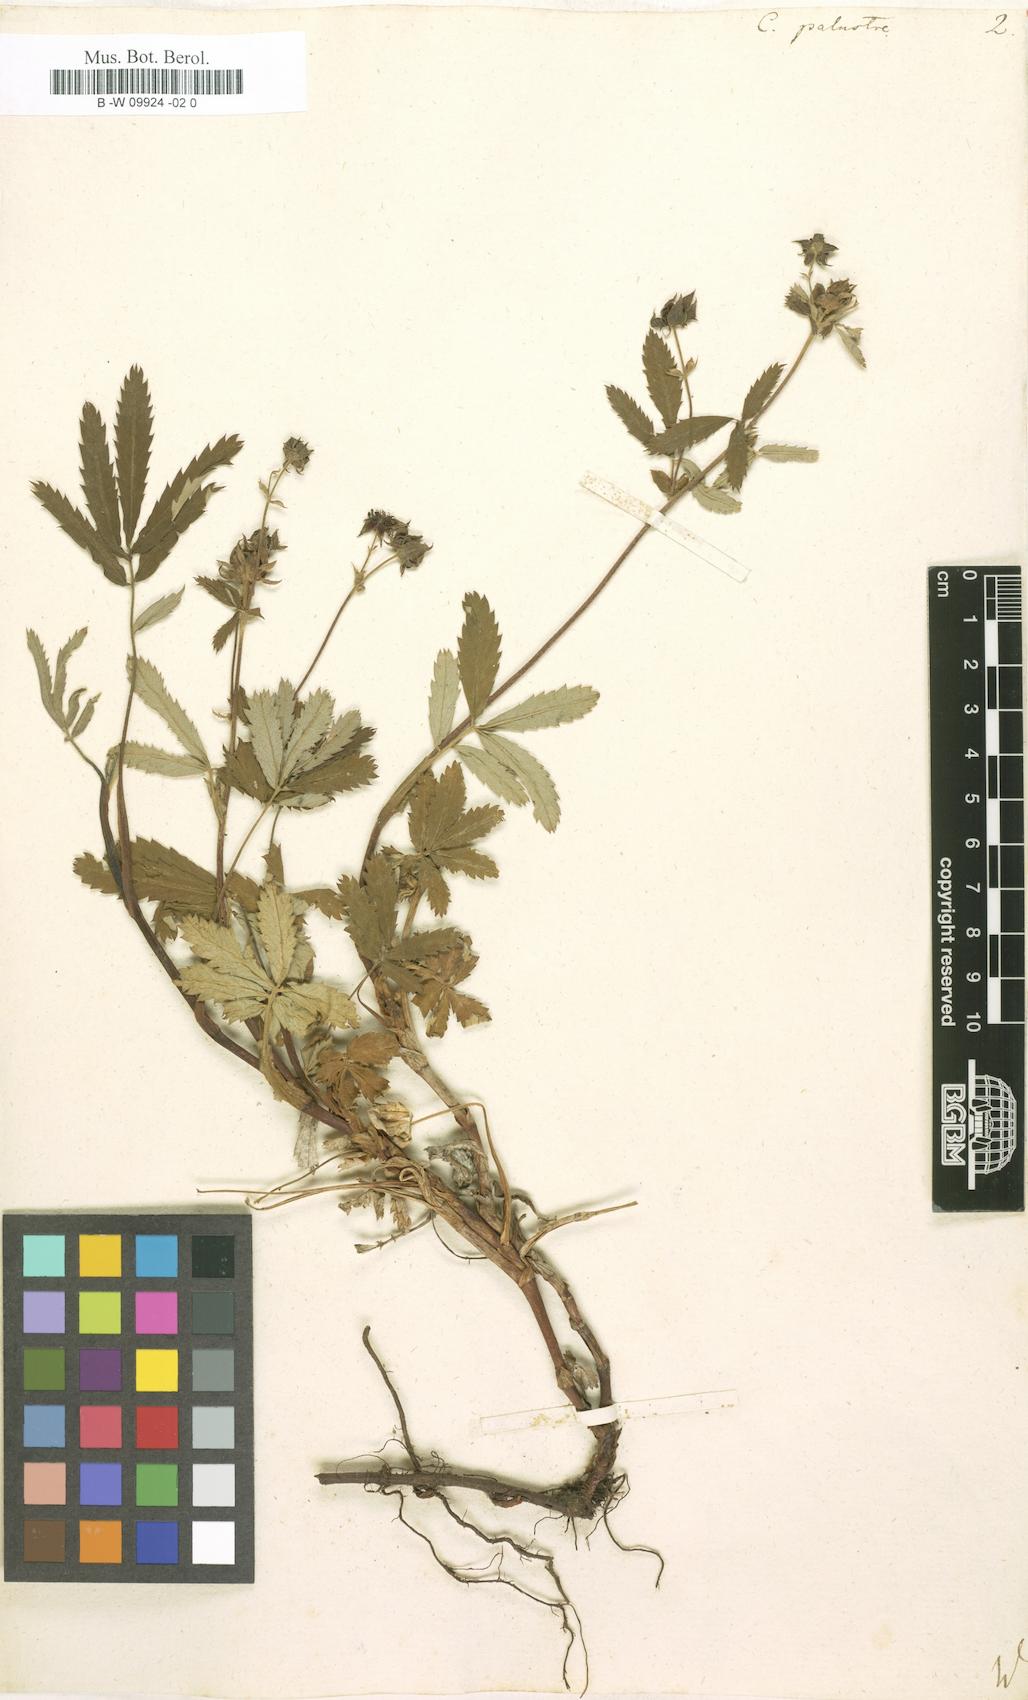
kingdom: Plantae
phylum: Tracheophyta
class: Magnoliopsida
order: Rosales
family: Rosaceae
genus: Comarum
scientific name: Comarum palustre
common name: Marsh cinquefoil
